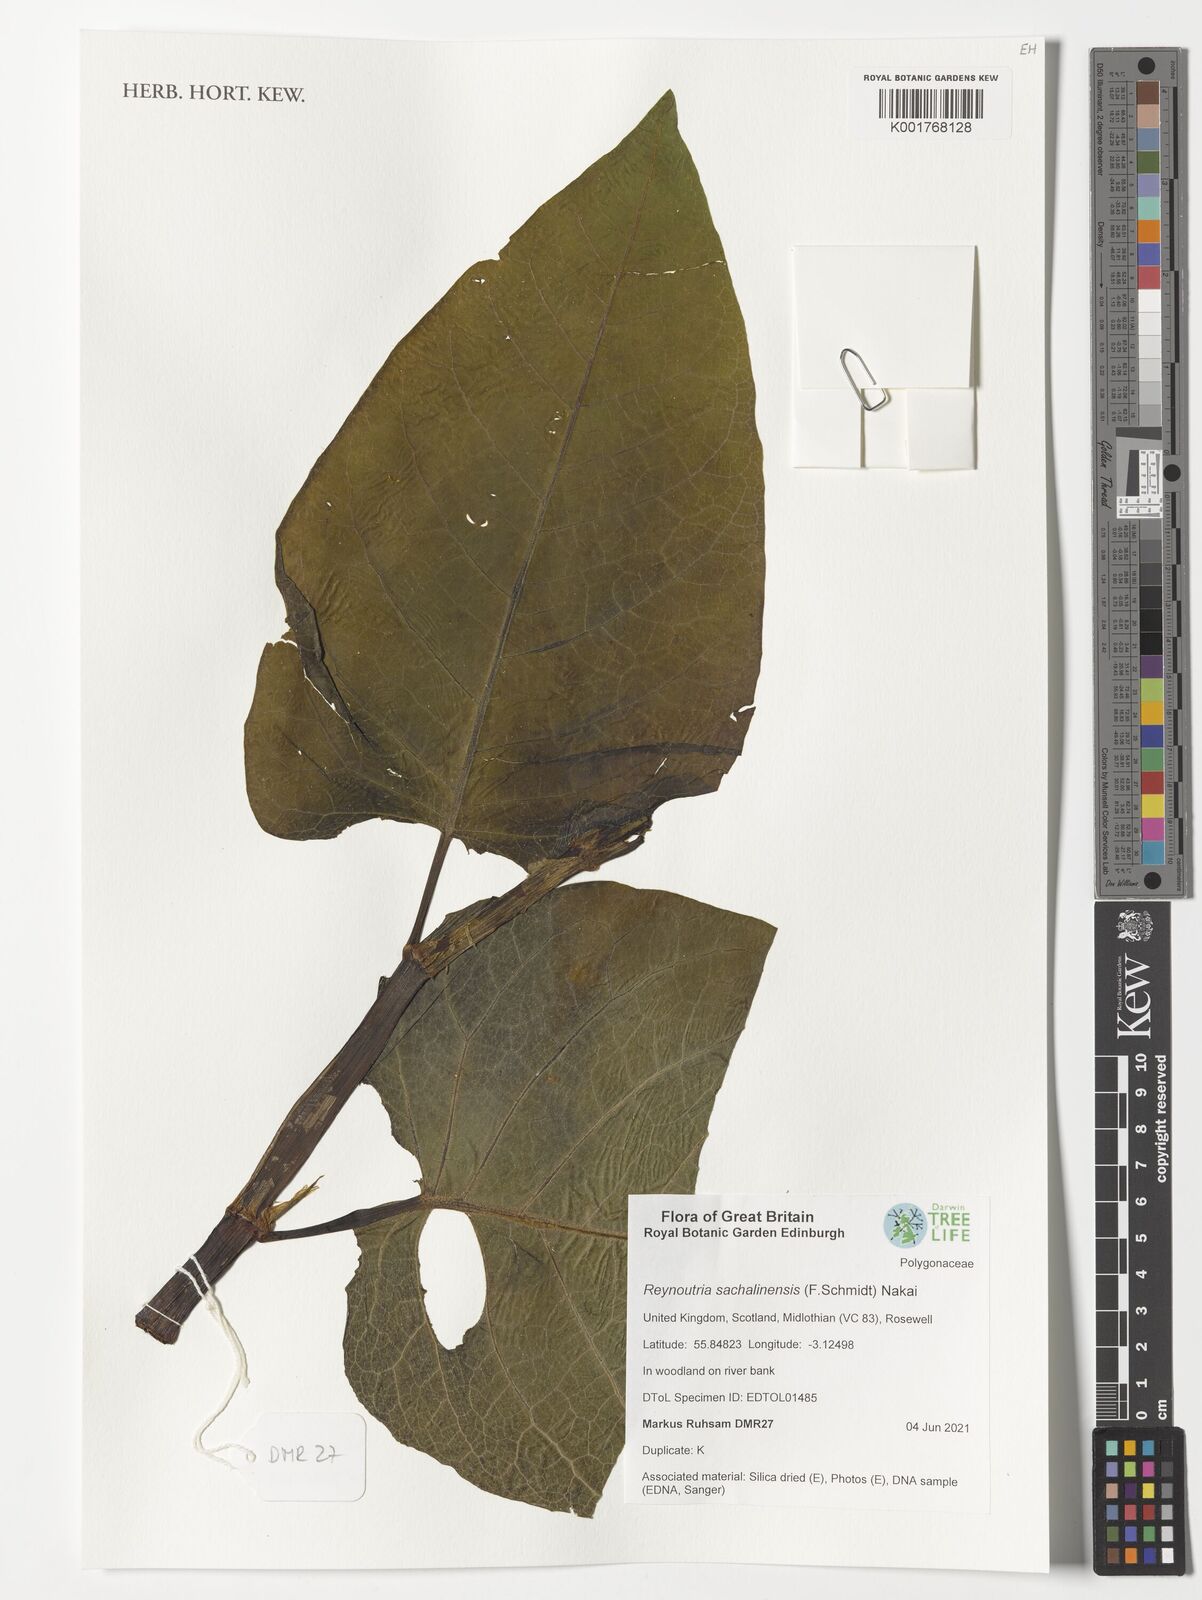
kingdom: Plantae
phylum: Tracheophyta
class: Magnoliopsida
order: Caryophyllales
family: Polygonaceae
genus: Reynoutria
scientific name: Reynoutria sachalinensis
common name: Giant knotweed
